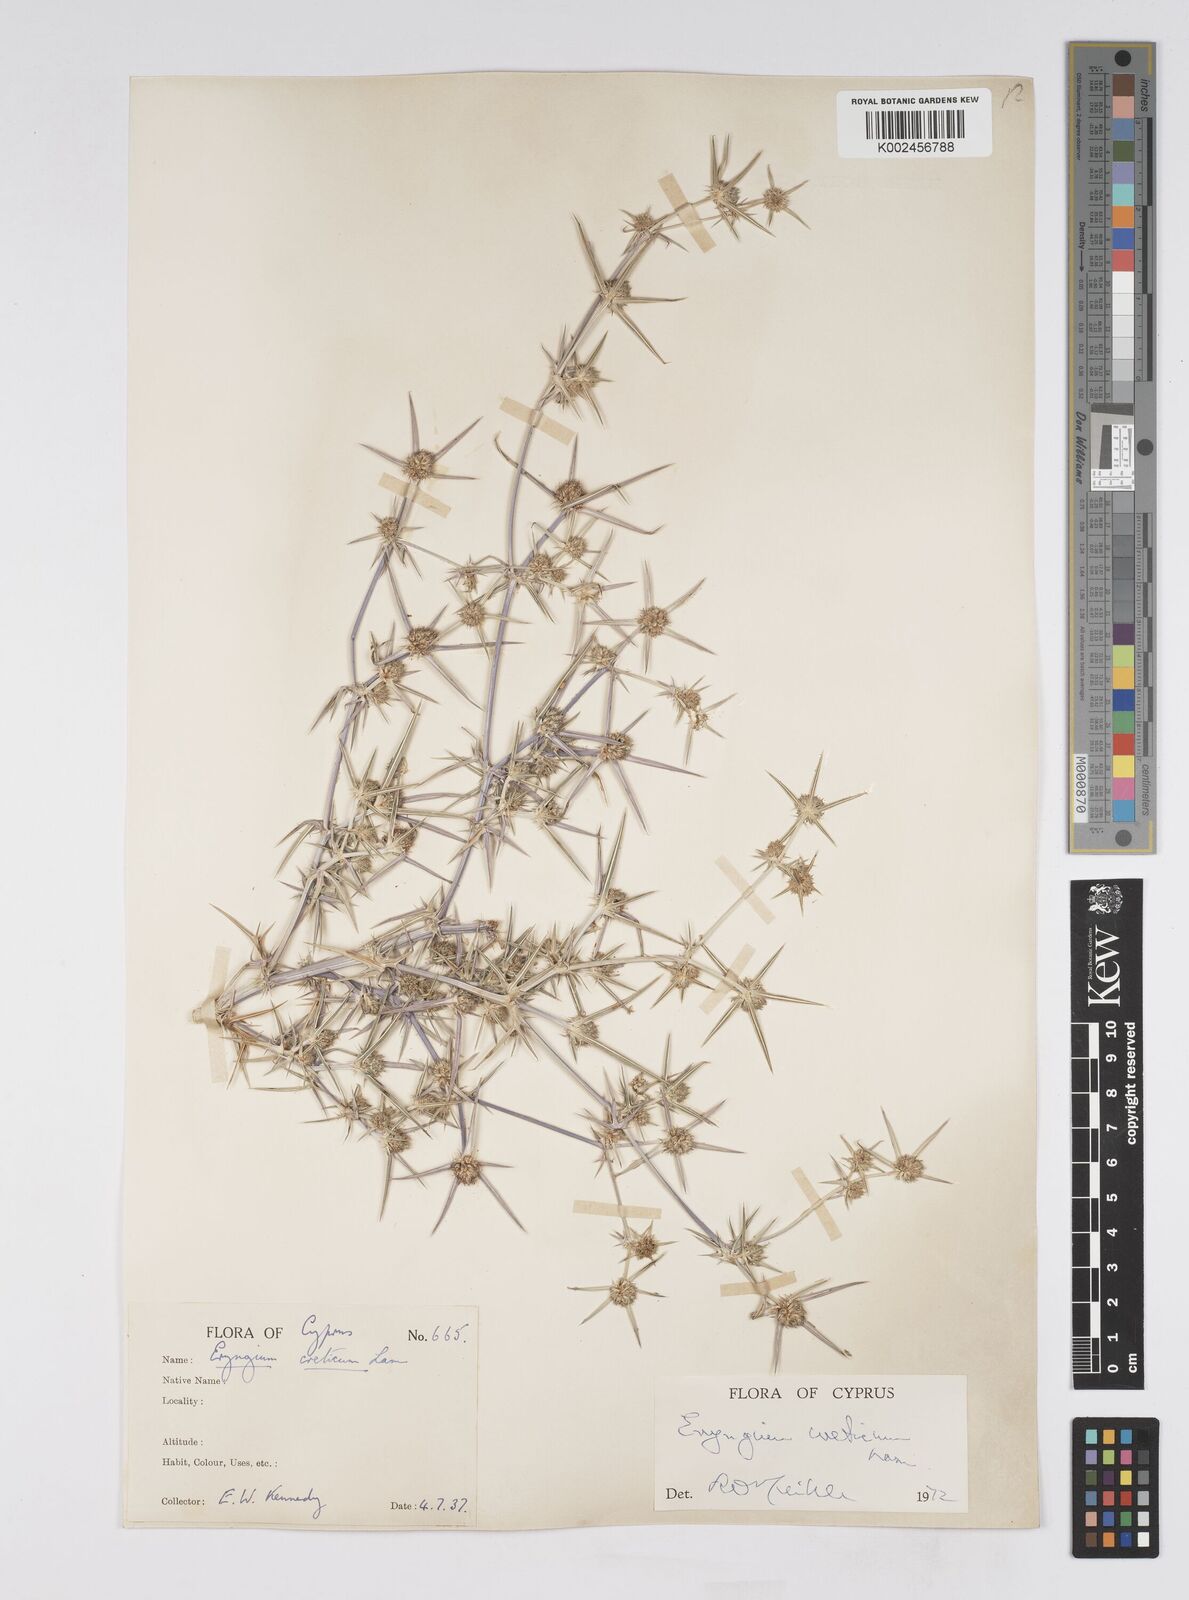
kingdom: Plantae
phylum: Tracheophyta
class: Magnoliopsida
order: Apiales
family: Apiaceae
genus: Eryngium
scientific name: Eryngium creticum
